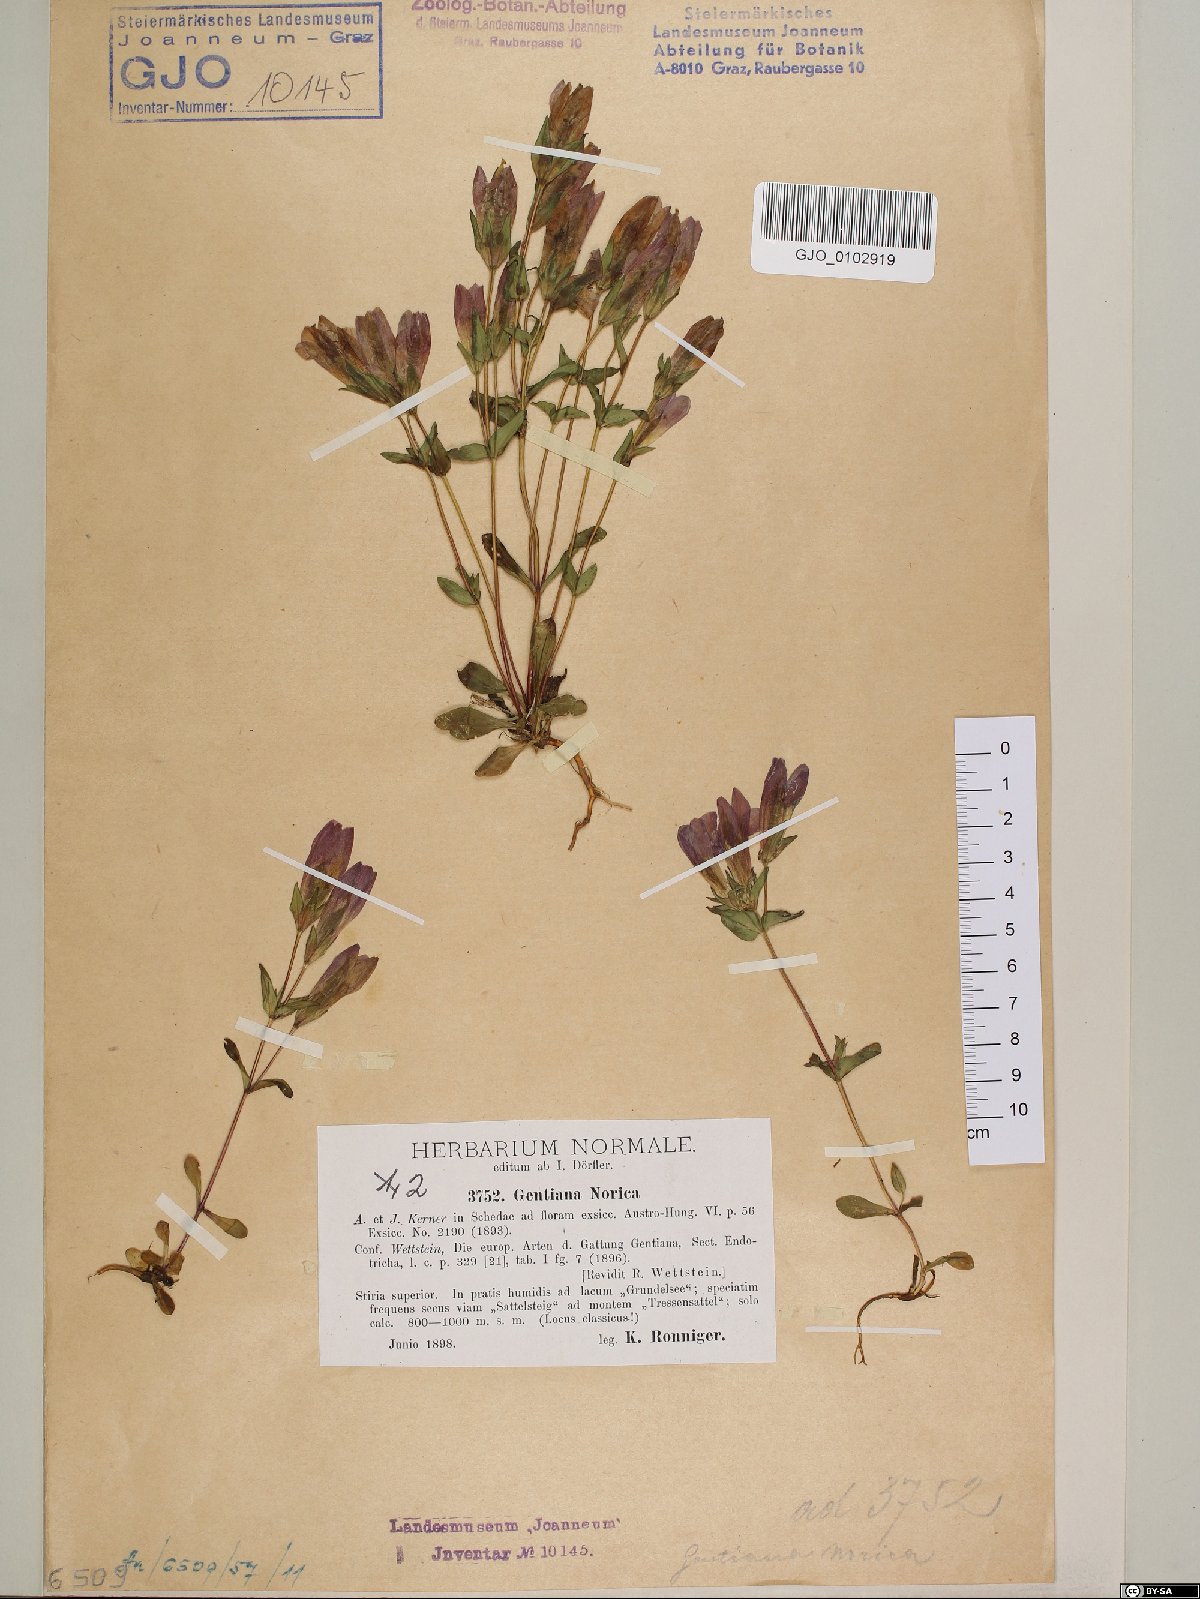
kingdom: Plantae
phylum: Tracheophyta
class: Magnoliopsida
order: Gentianales
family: Gentianaceae
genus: Gentianella
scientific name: Gentianella obtusifolia
